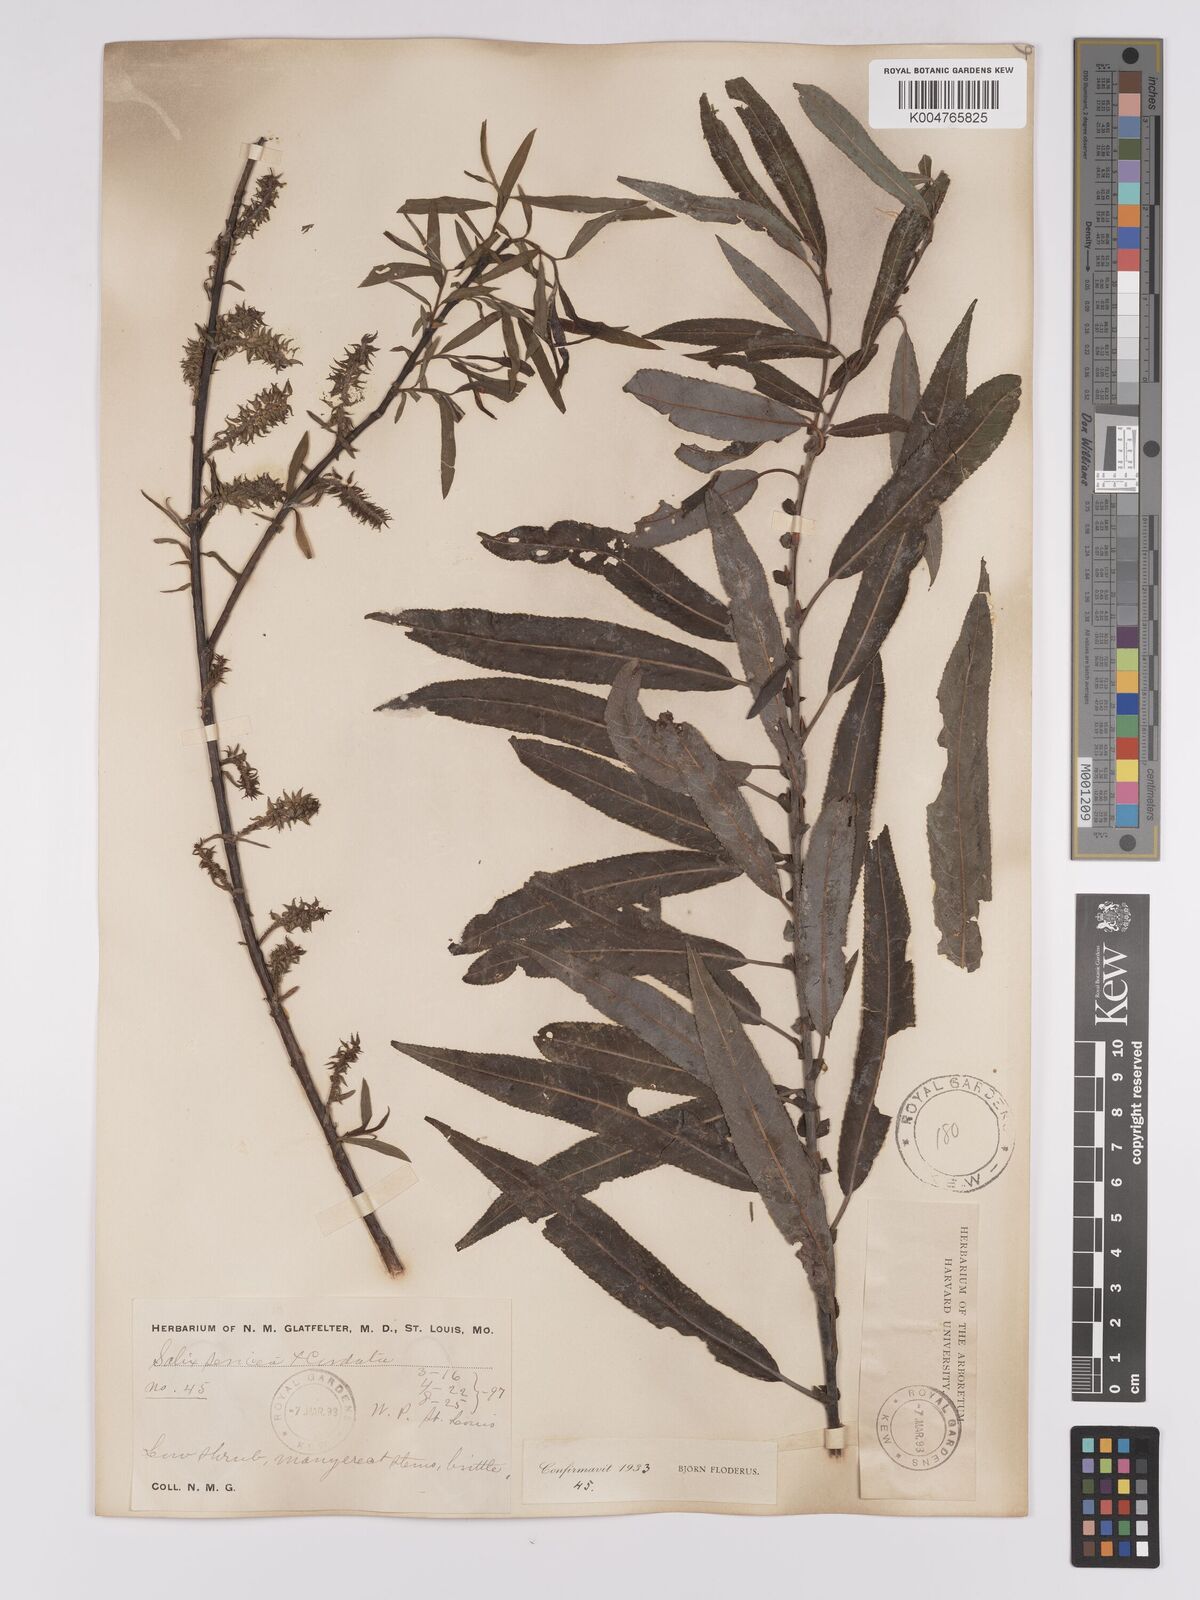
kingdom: Plantae
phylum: Tracheophyta
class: Magnoliopsida
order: Malpighiales
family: Salicaceae
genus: Salix
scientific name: Salix
